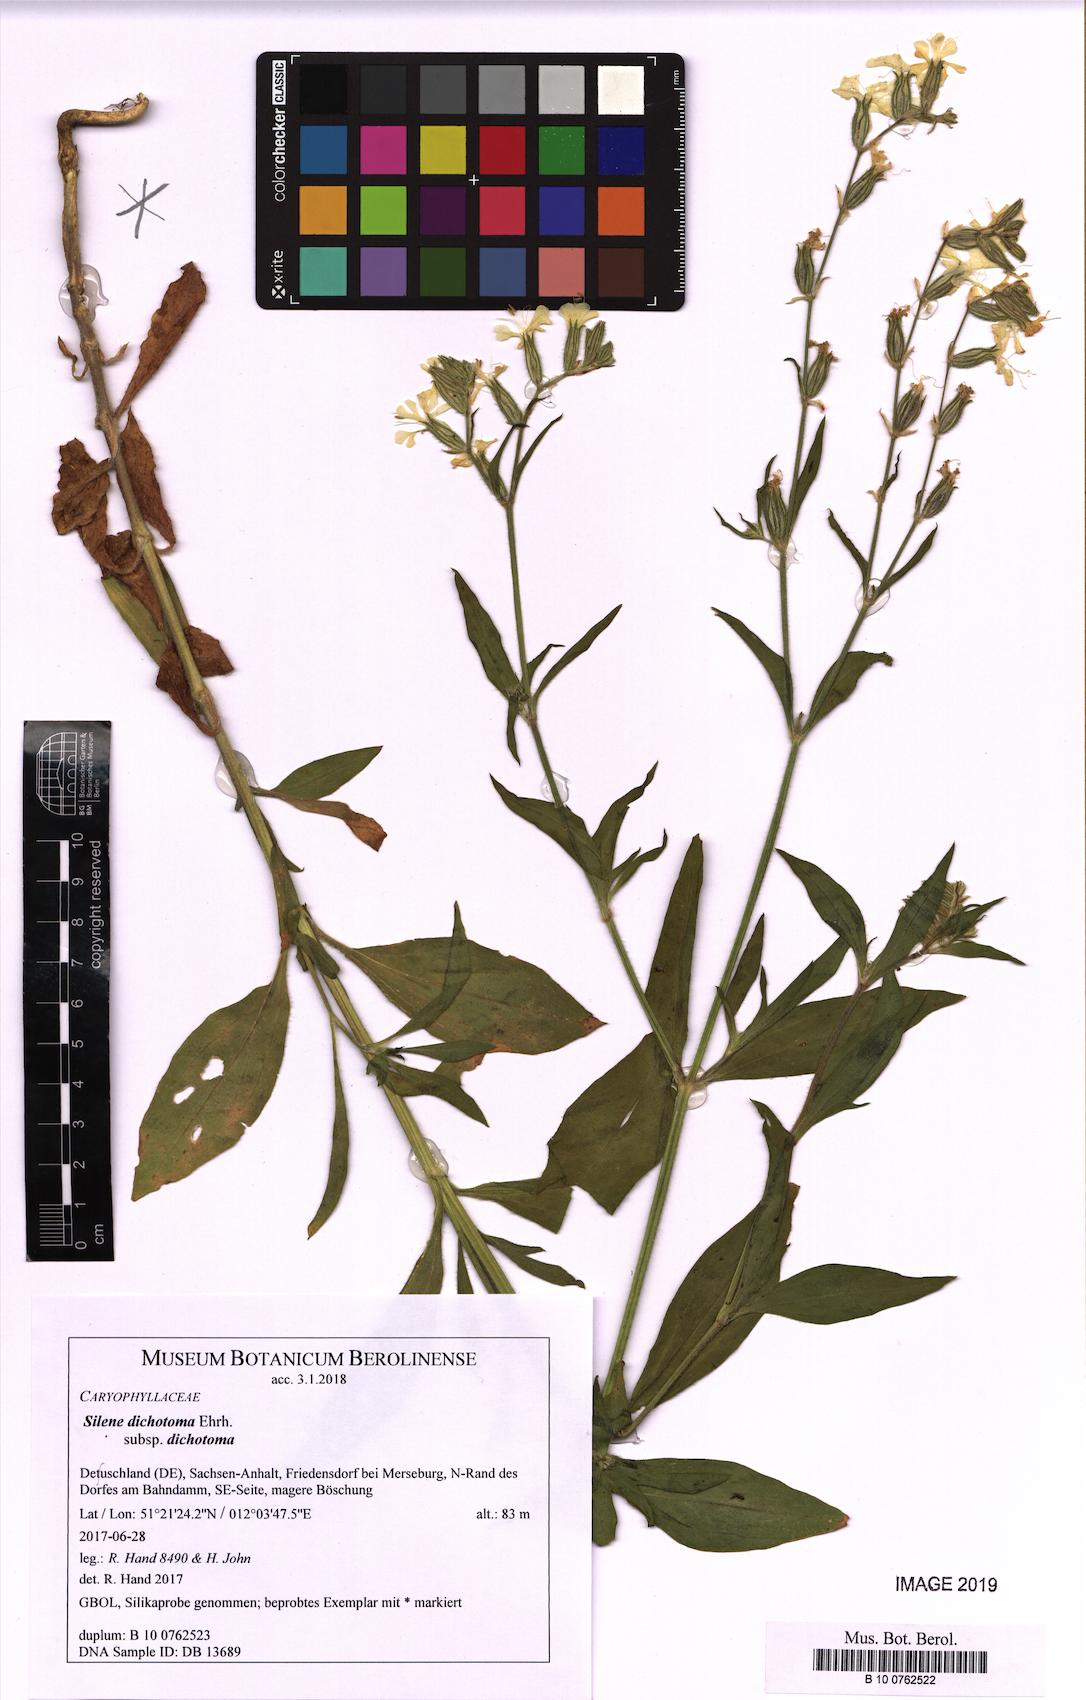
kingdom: Plantae
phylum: Tracheophyta
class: Magnoliopsida
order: Caryophyllales
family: Caryophyllaceae
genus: Silene
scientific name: Silene dichotoma
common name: Forked catchfly
